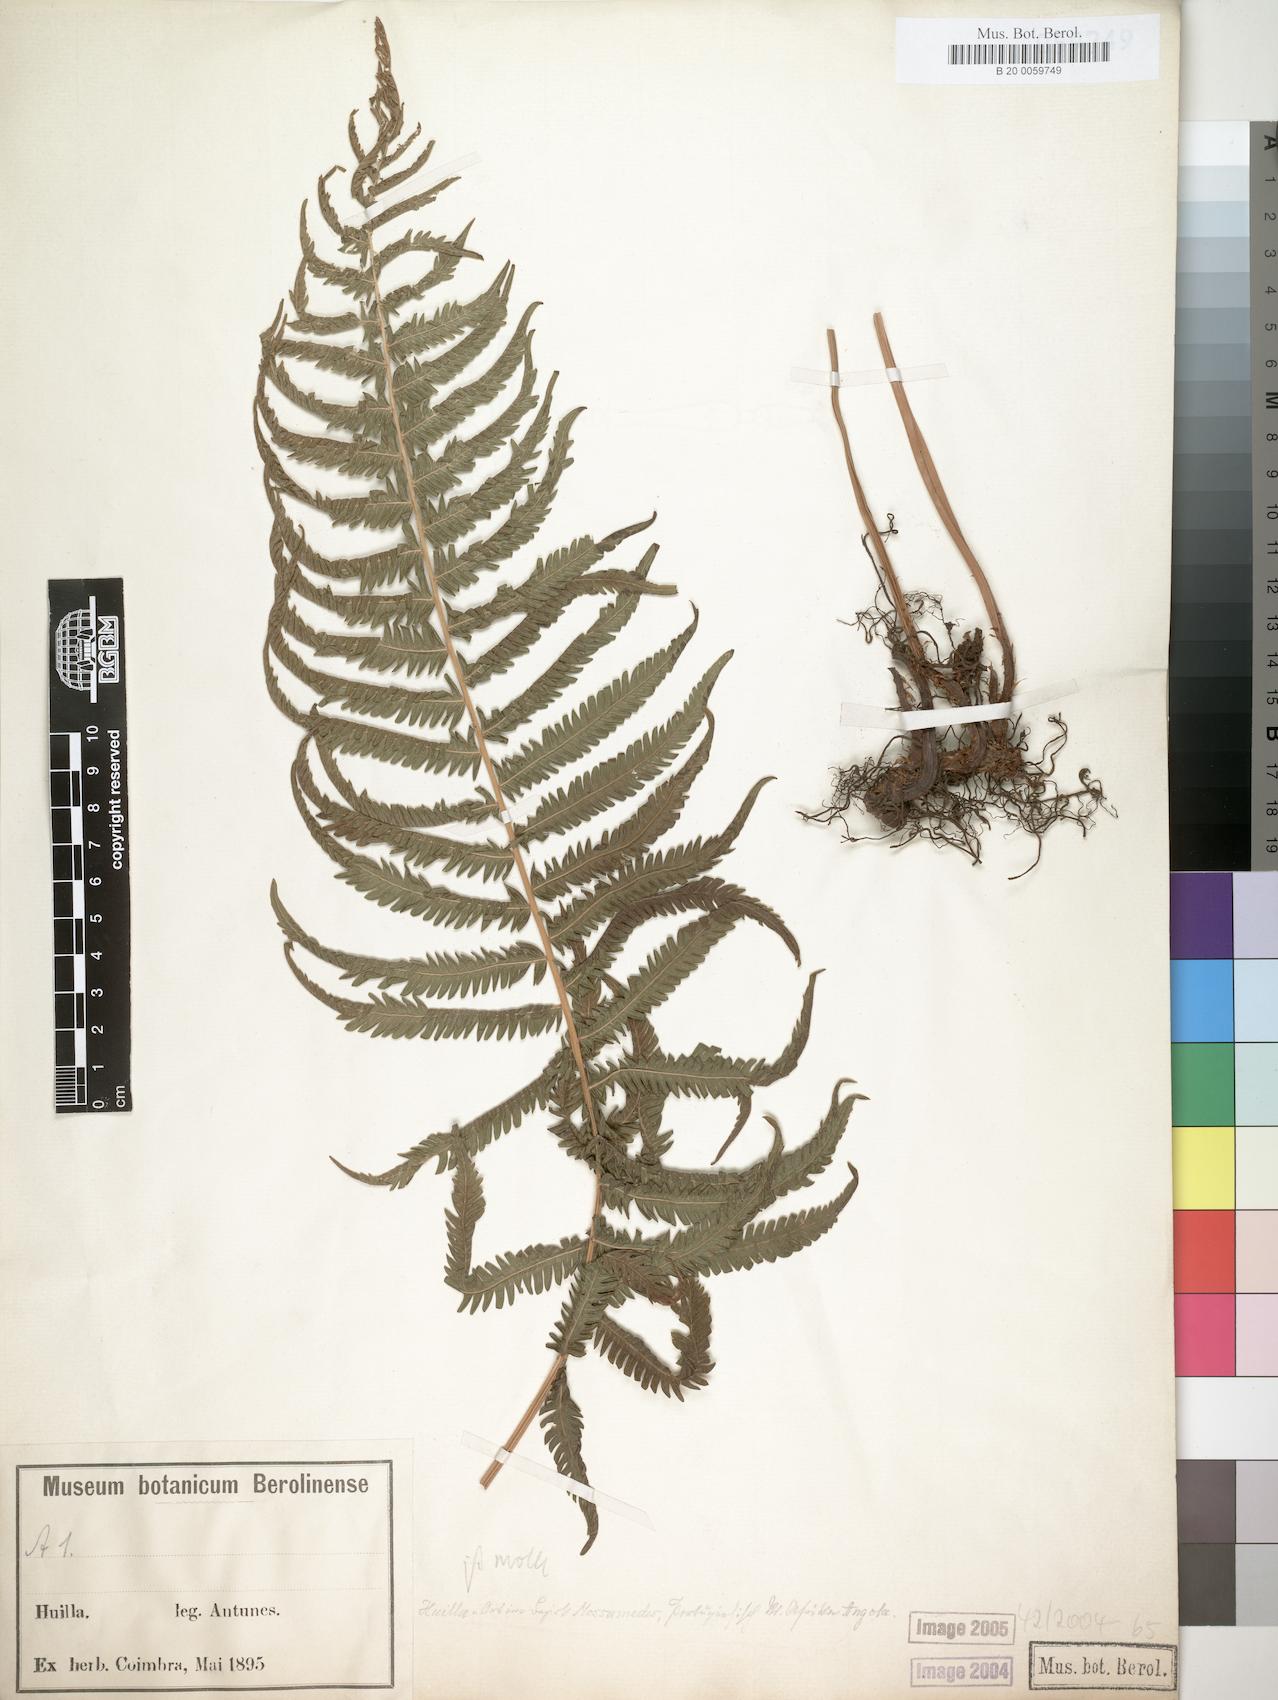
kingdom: Plantae
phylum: Tracheophyta
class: Polypodiopsida
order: Polypodiales
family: Thelypteridaceae
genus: Christella
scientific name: Christella dentata
